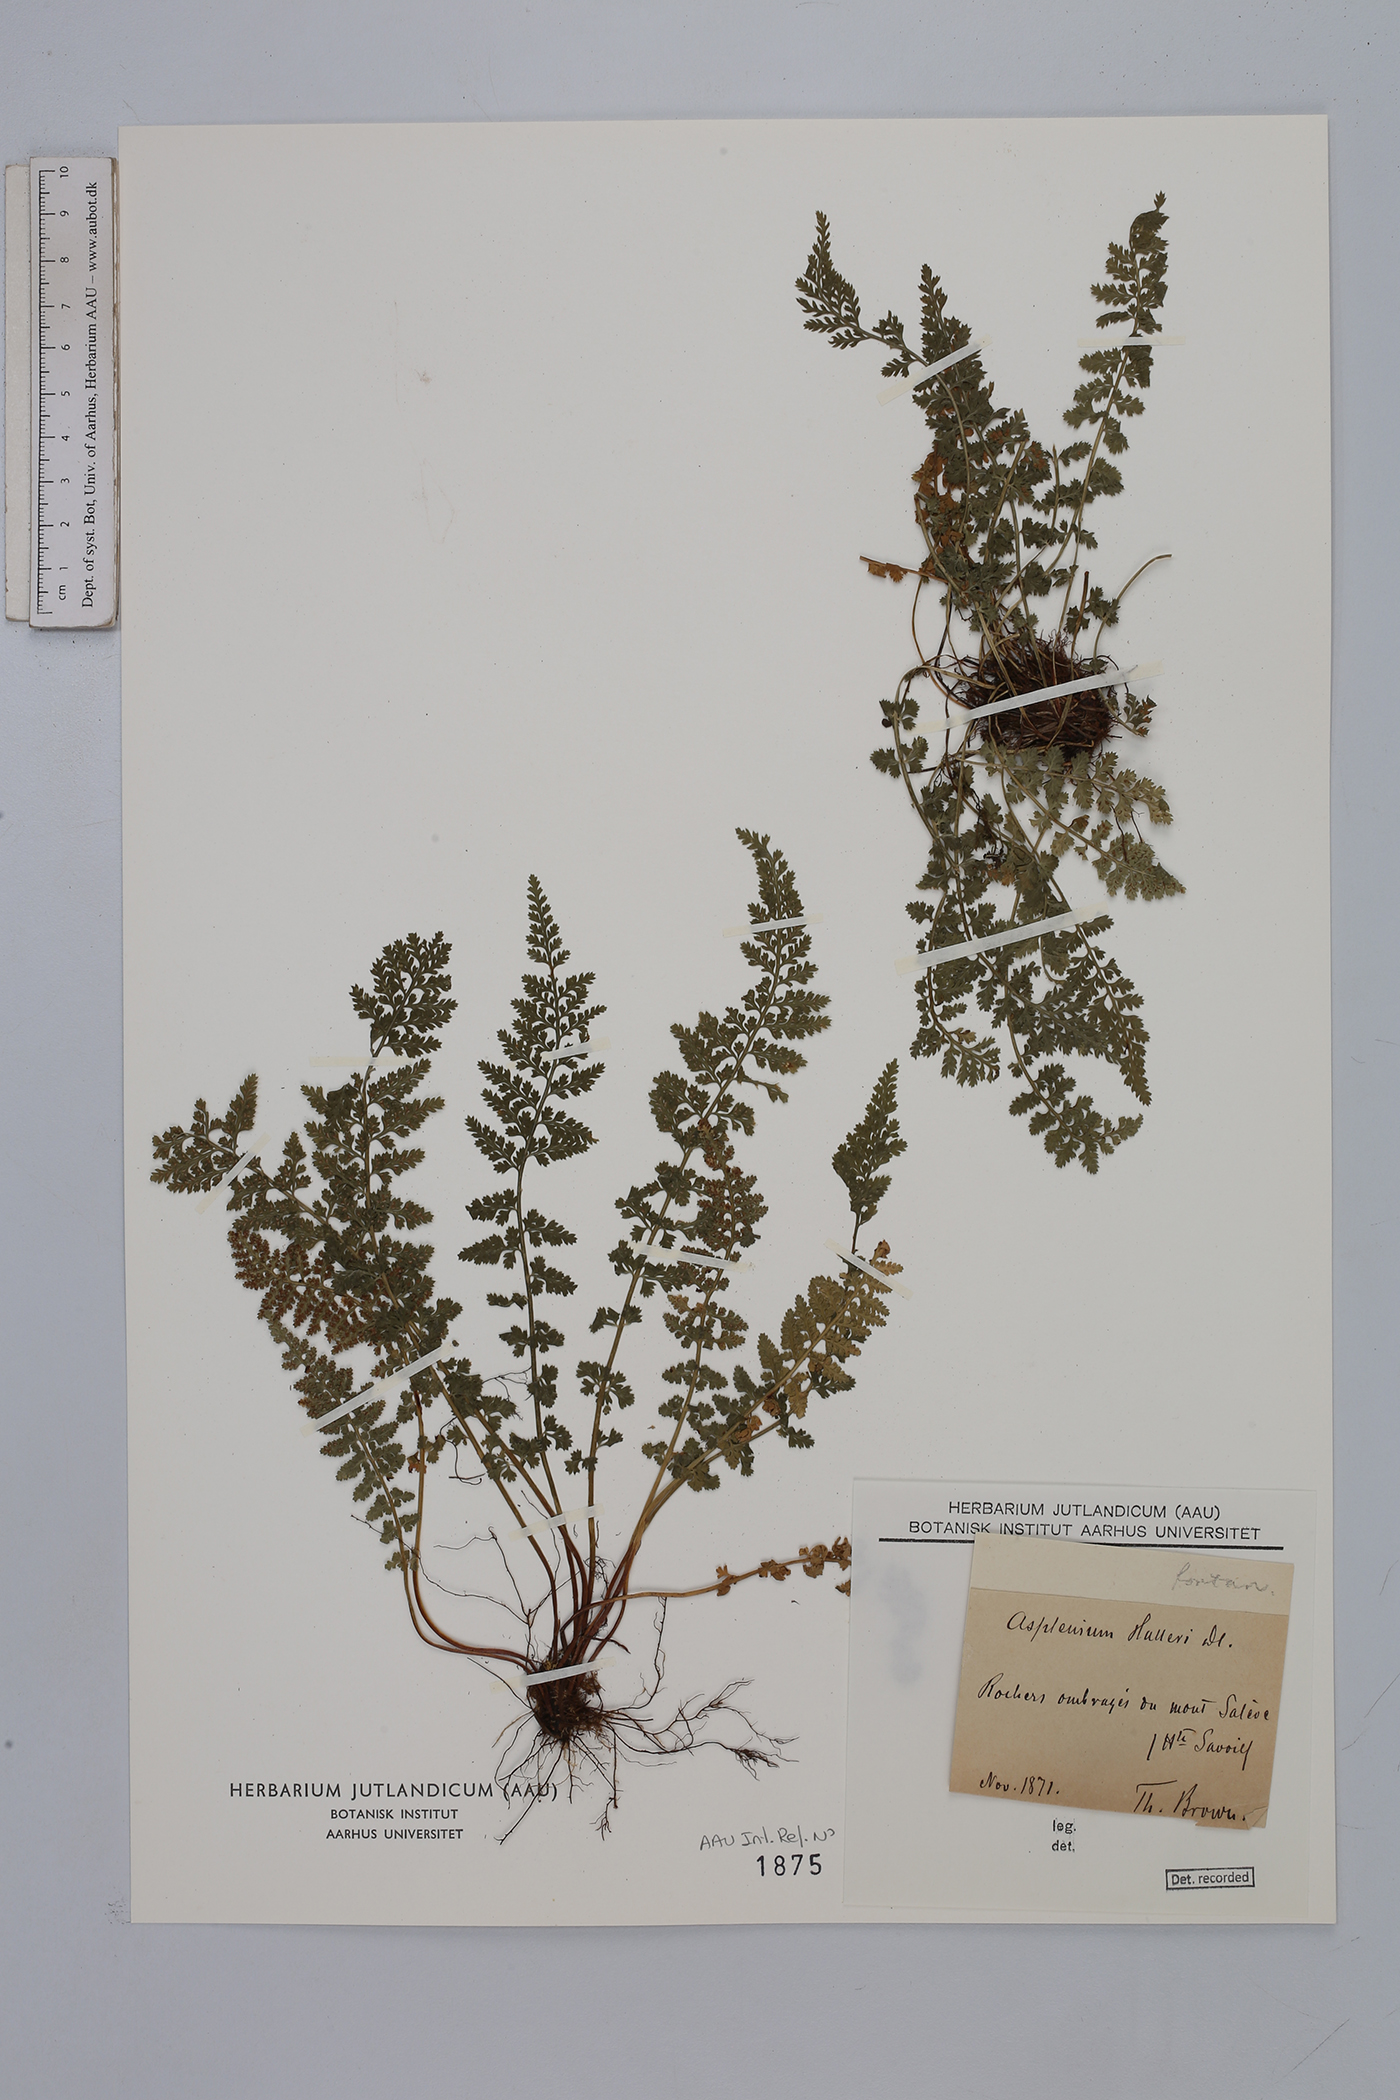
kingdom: Plantae
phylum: Tracheophyta
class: Polypodiopsida
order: Polypodiales
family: Aspleniaceae
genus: Asplenium
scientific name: Asplenium fontanum
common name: Fountain spleenwort
